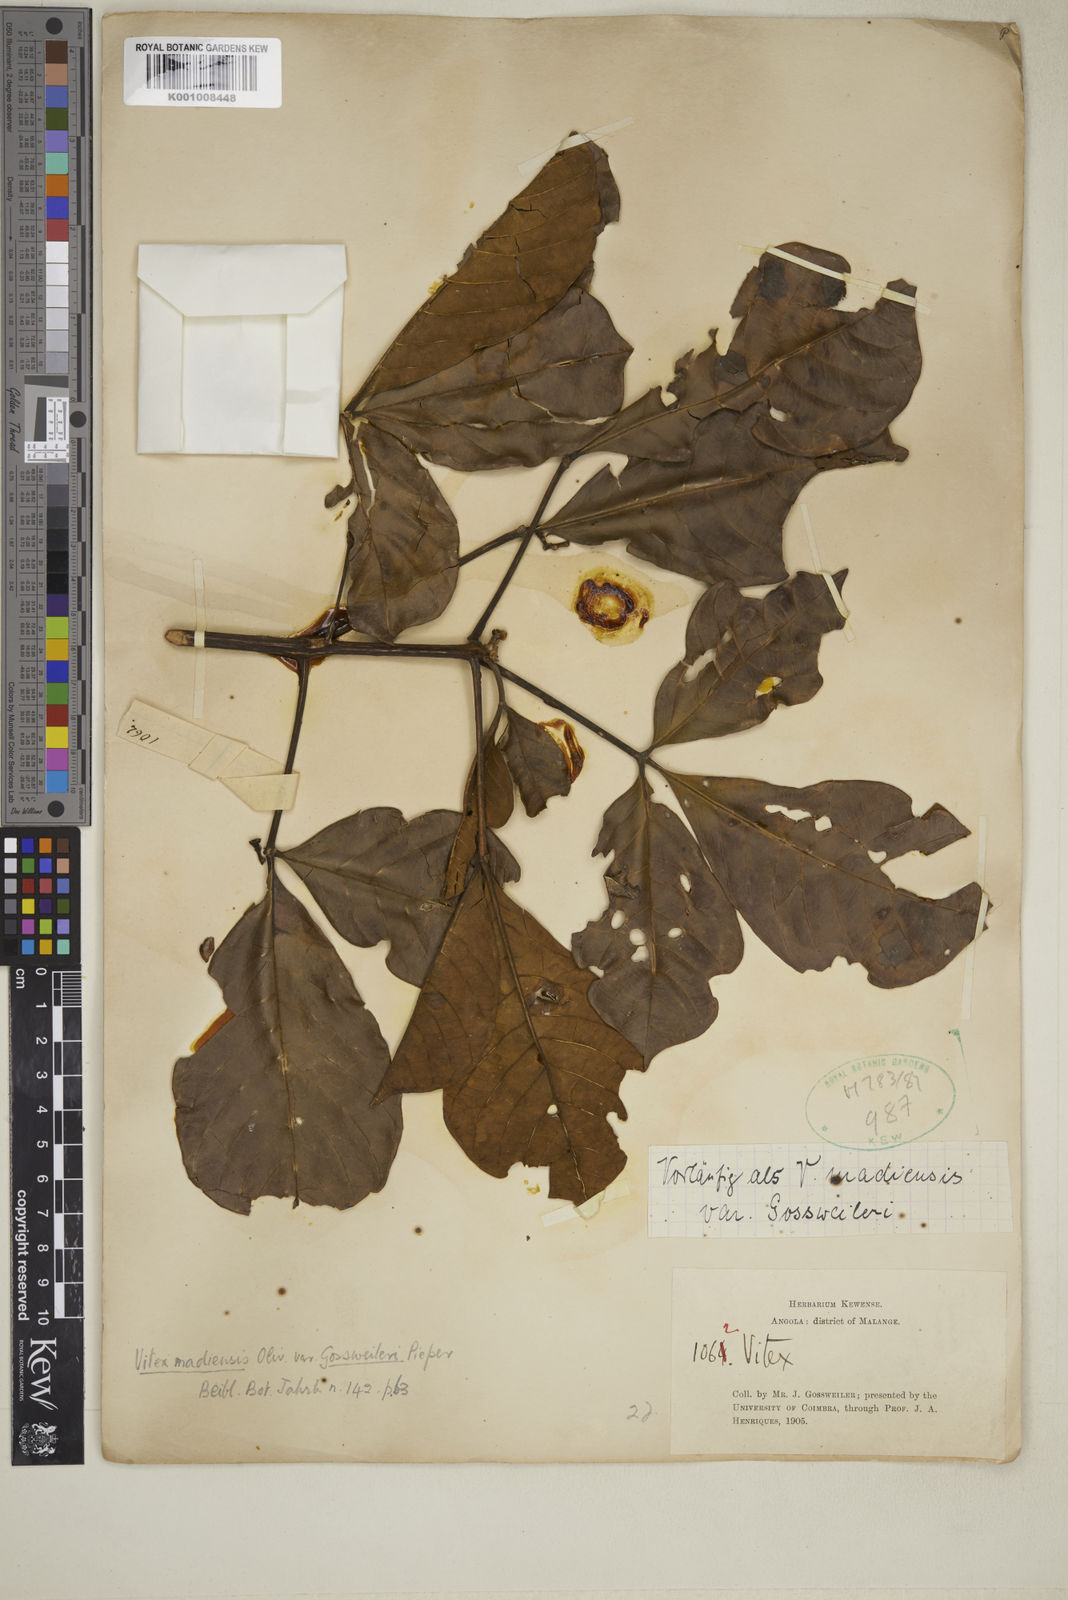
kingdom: Plantae
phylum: Tracheophyta
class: Magnoliopsida
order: Lamiales
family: Lamiaceae
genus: Vitex
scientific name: Vitex madiensis
